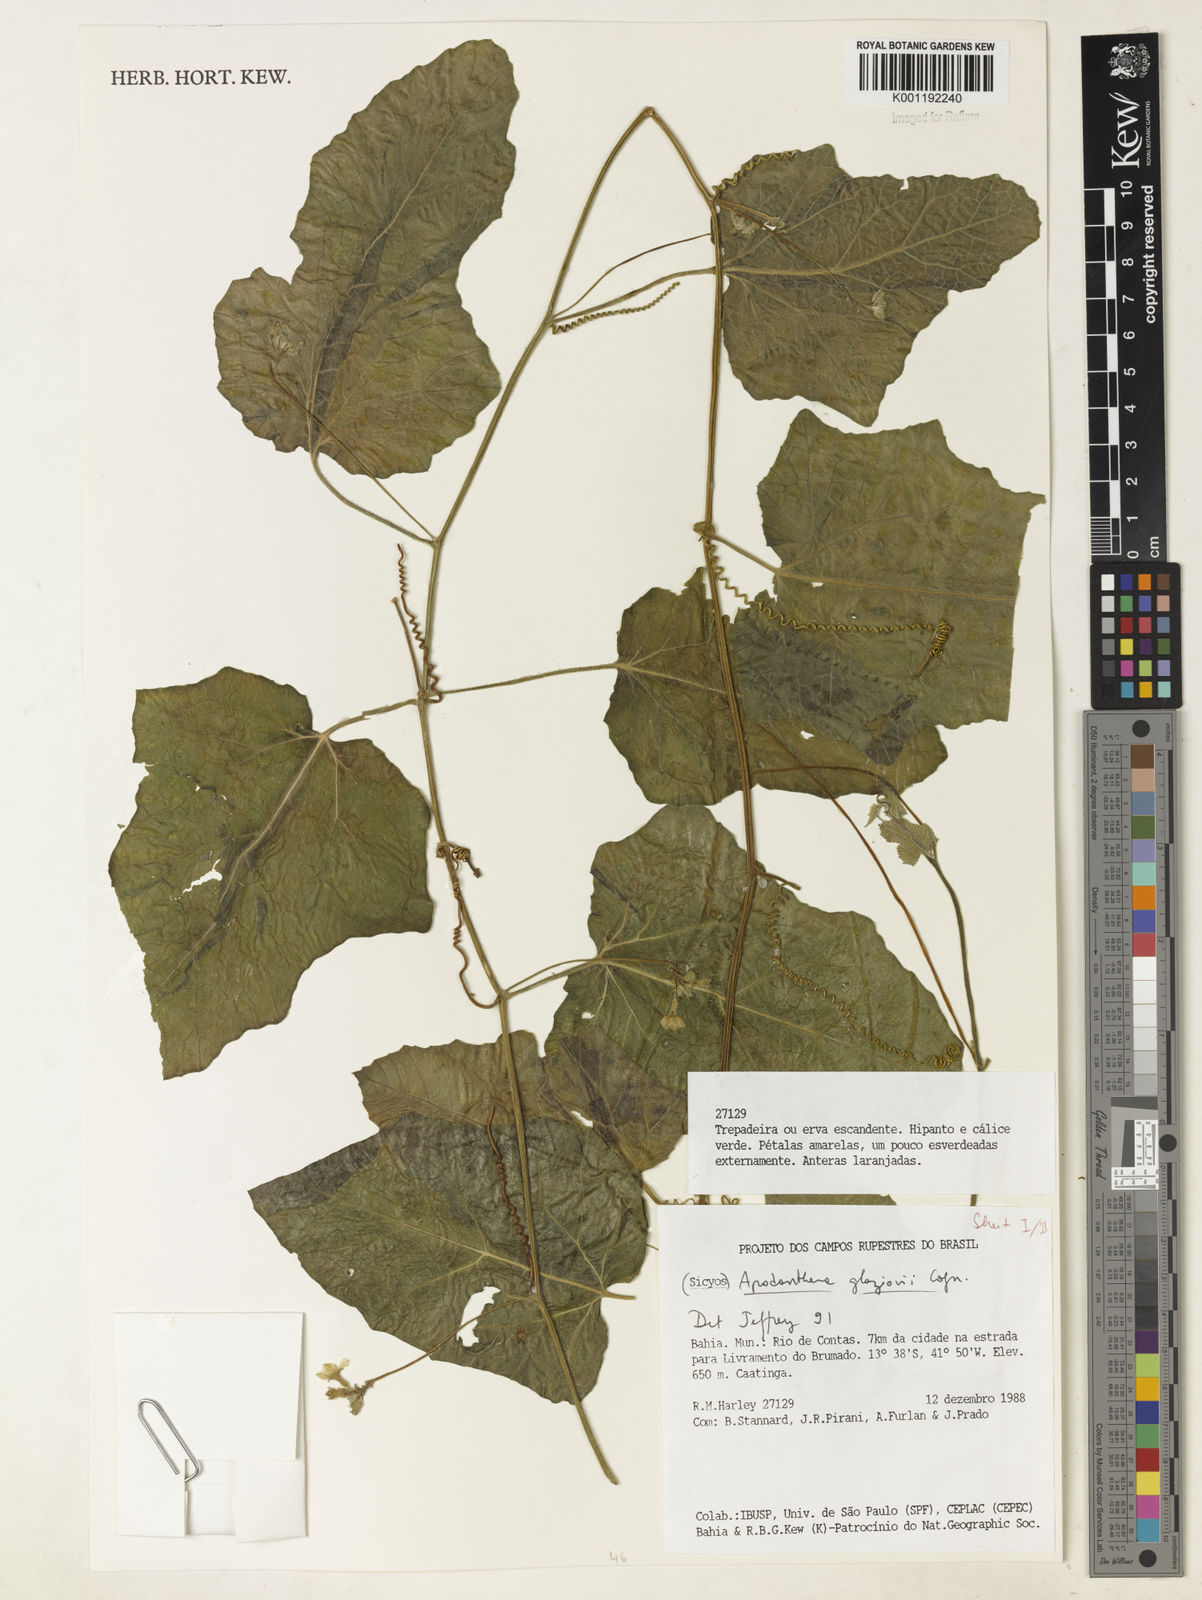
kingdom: Plantae
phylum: Tracheophyta
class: Magnoliopsida
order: Cucurbitales
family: Cucurbitaceae
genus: Apodanthera
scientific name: Apodanthera glaziovii
